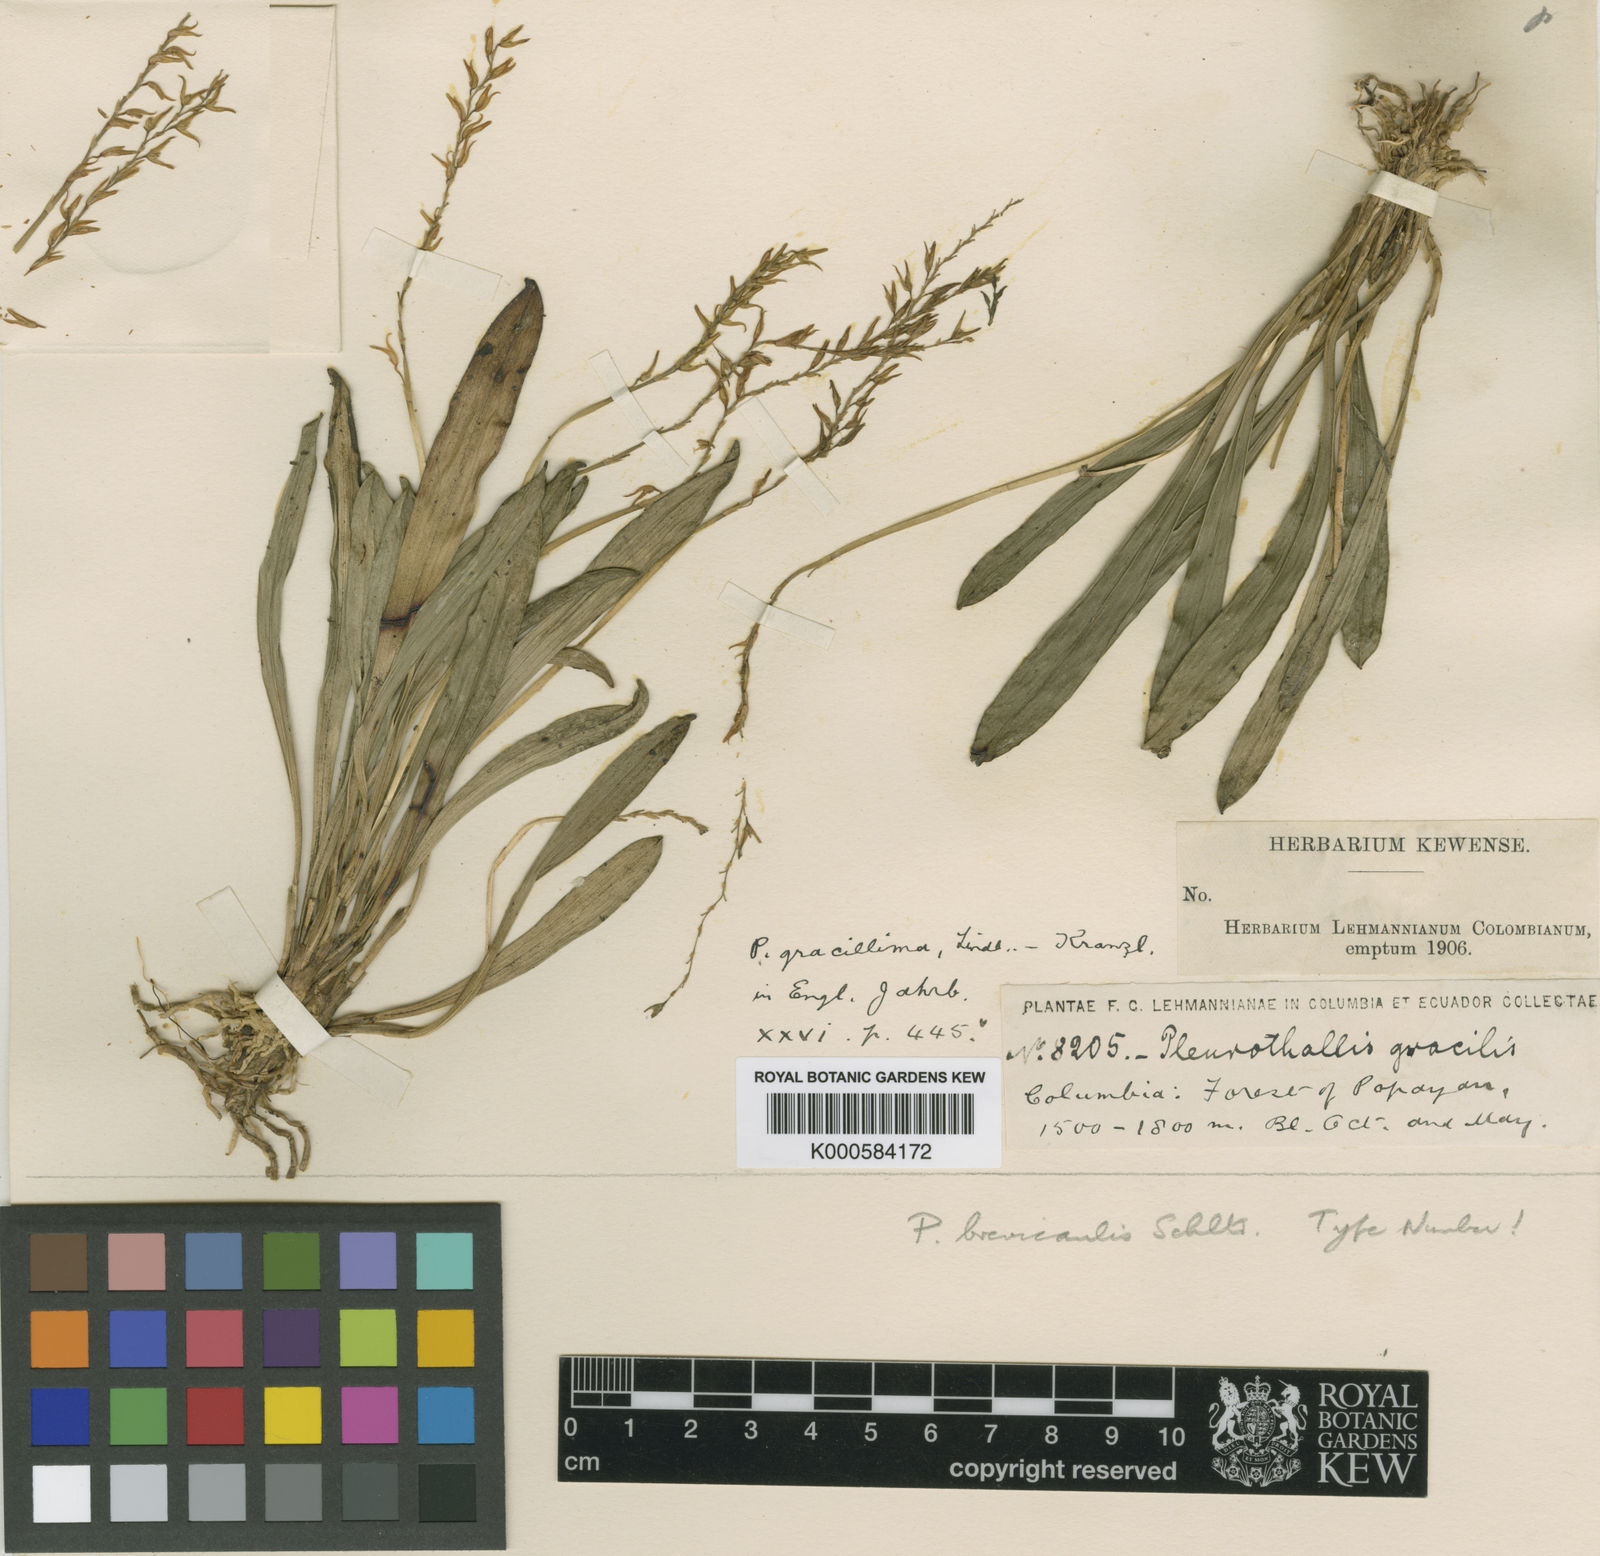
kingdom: Plantae
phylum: Tracheophyta
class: Liliopsida
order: Asparagales
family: Orchidaceae
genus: Specklinia
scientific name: Specklinia gracillima
